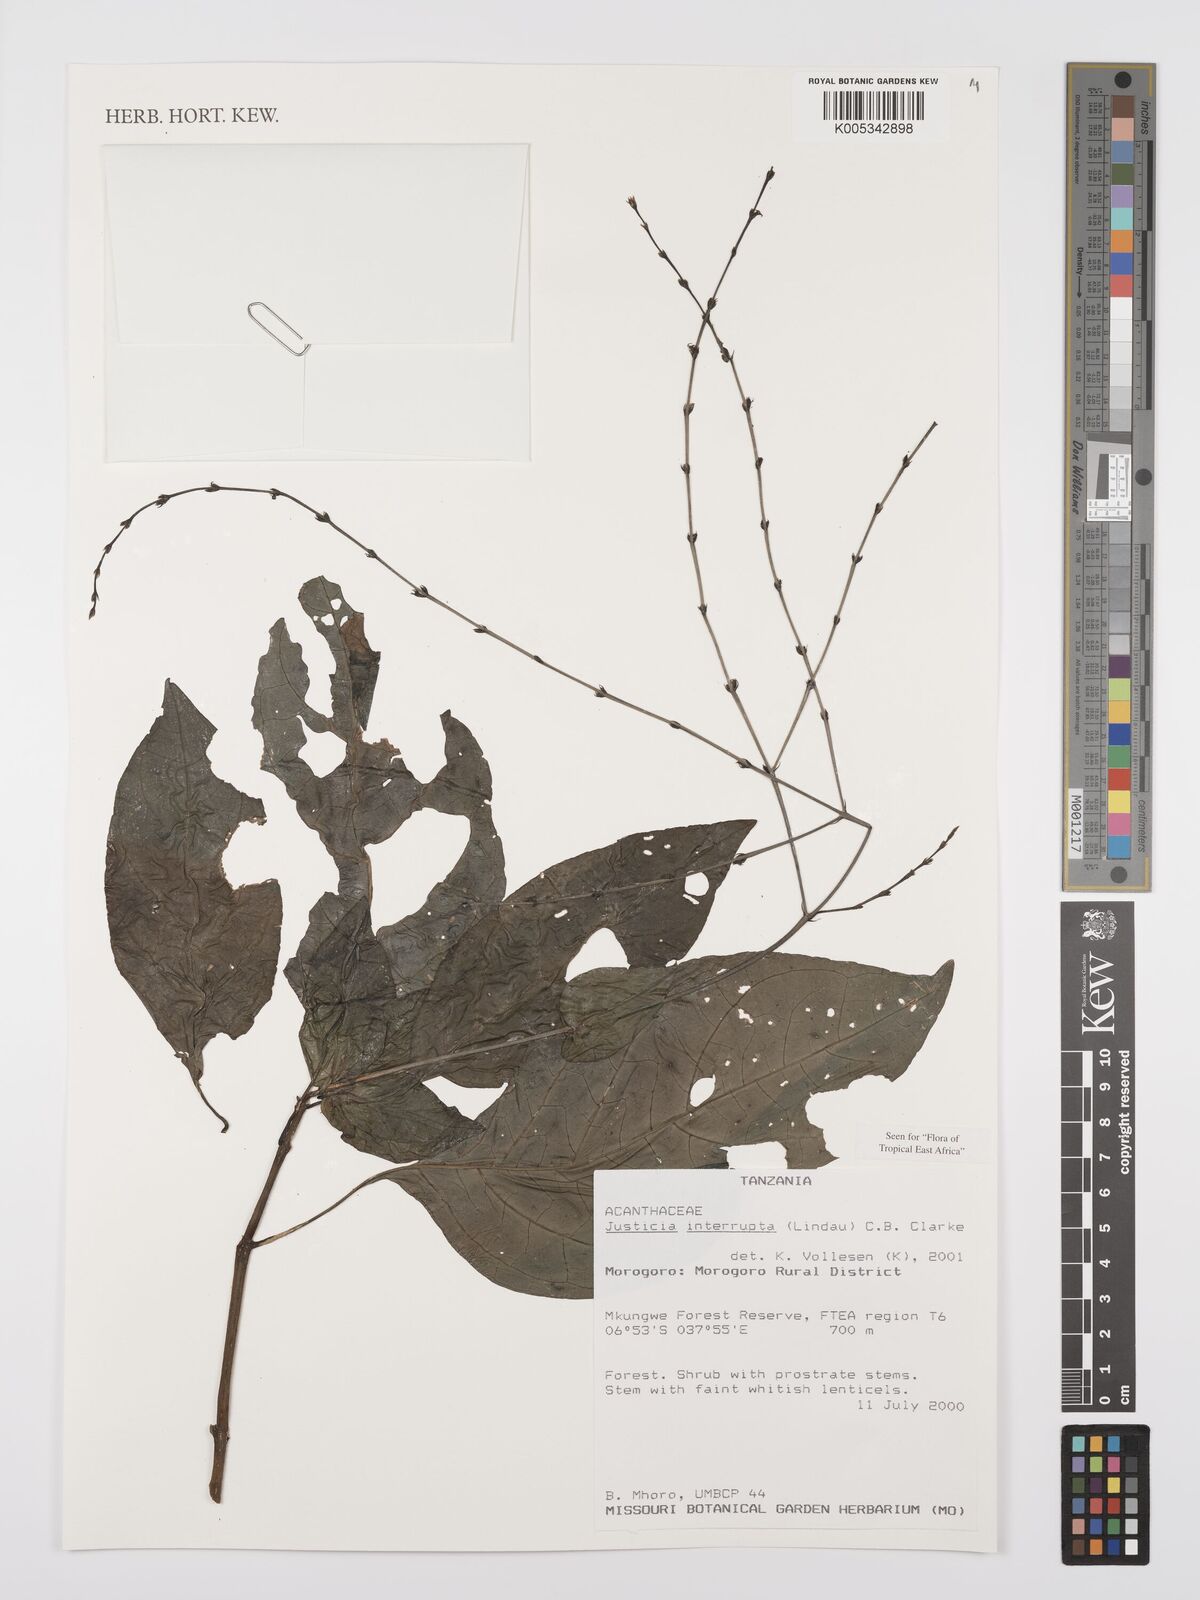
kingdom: Plantae
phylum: Tracheophyta
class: Magnoliopsida
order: Lamiales
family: Acanthaceae
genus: Justicia
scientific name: Justicia plectranthoides
